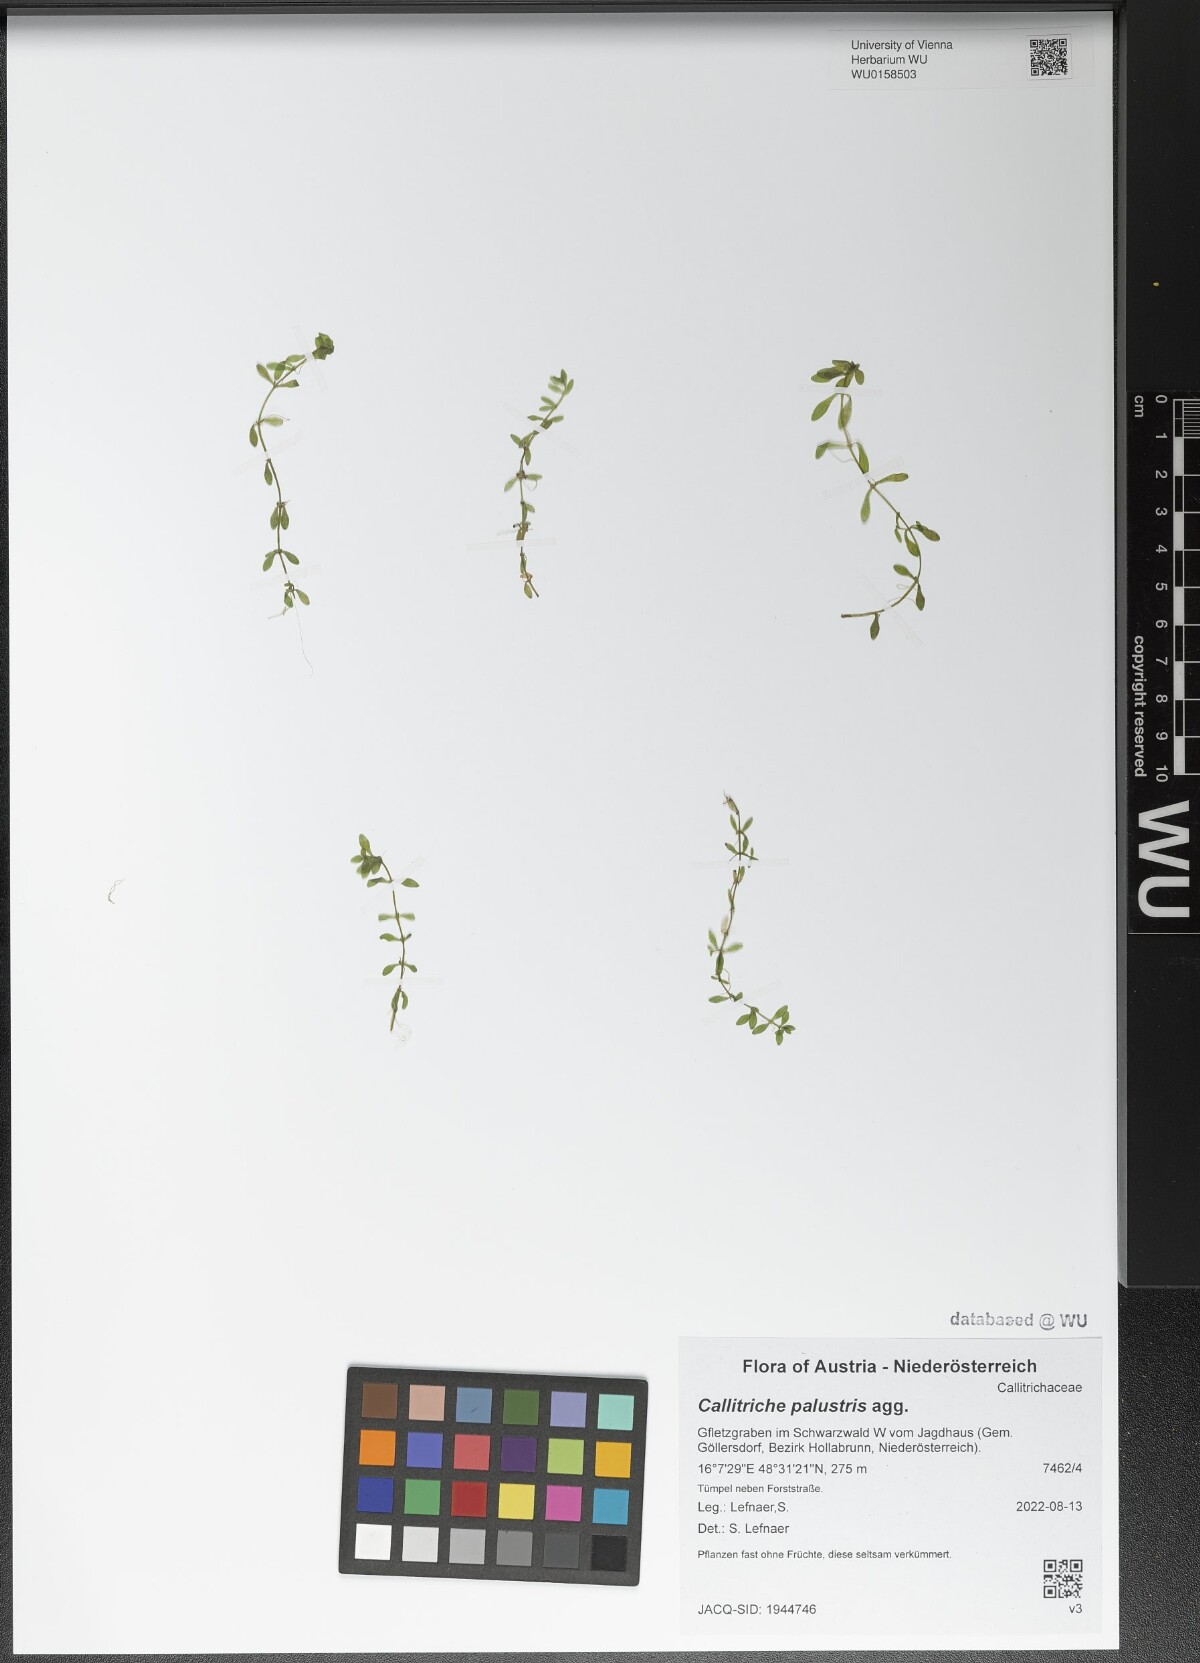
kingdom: Plantae
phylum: Tracheophyta
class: Magnoliopsida
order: Lamiales
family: Plantaginaceae
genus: Callitriche
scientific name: Callitriche palustris
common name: Spring water-starwort
